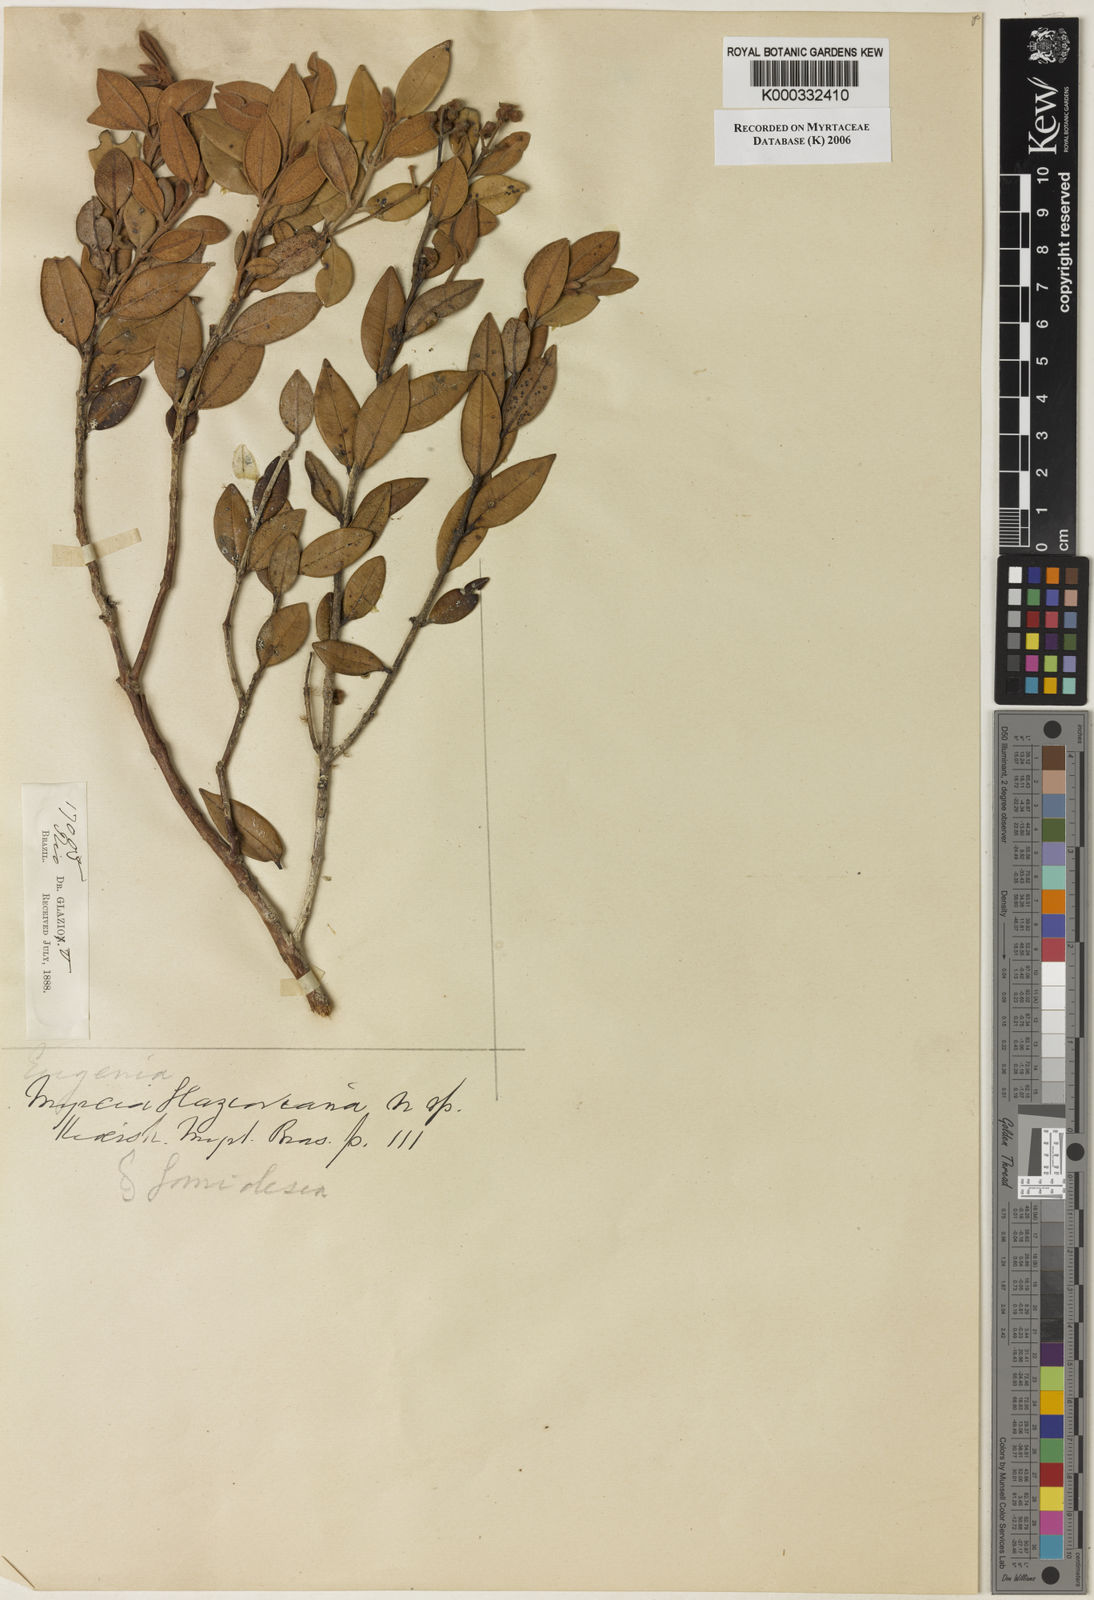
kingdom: Plantae
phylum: Tracheophyta
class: Magnoliopsida
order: Myrtales
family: Myrtaceae
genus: Myrcia
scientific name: Myrcia glazioviana
